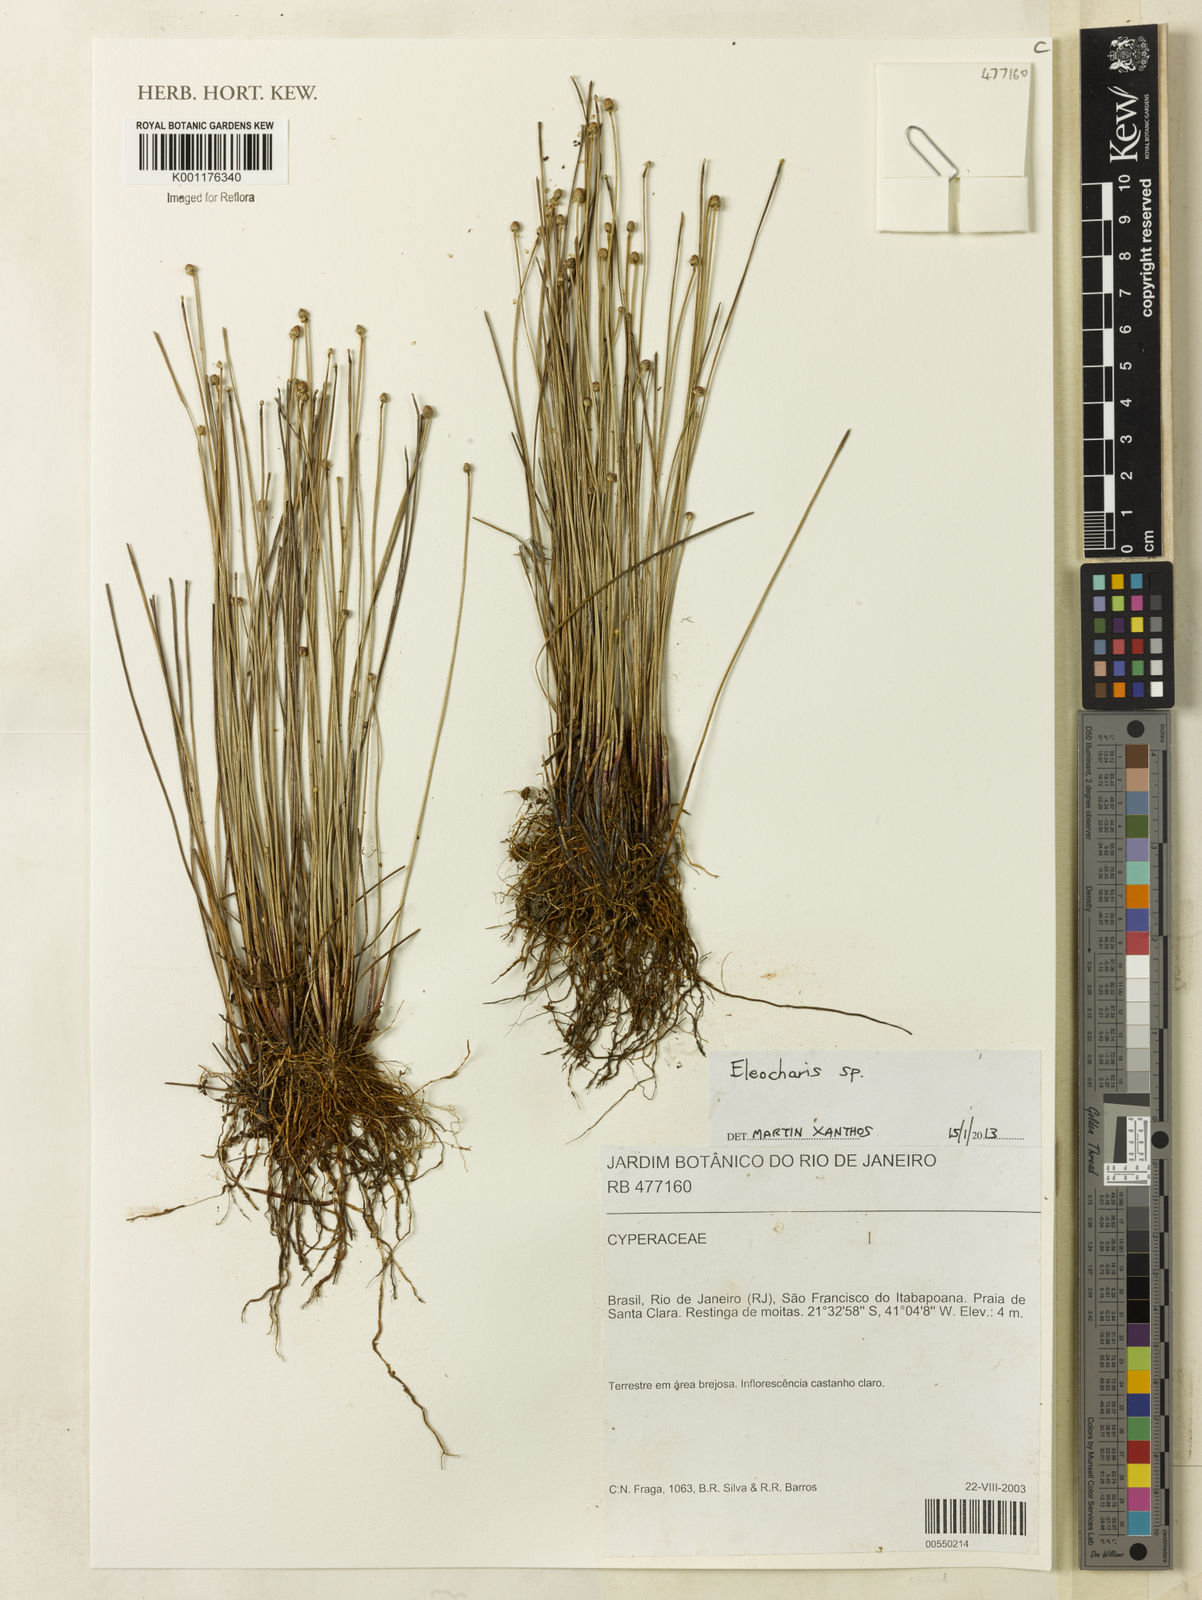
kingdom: Plantae
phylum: Tracheophyta
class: Liliopsida
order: Poales
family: Cyperaceae
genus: Eleocharis
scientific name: Eleocharis
